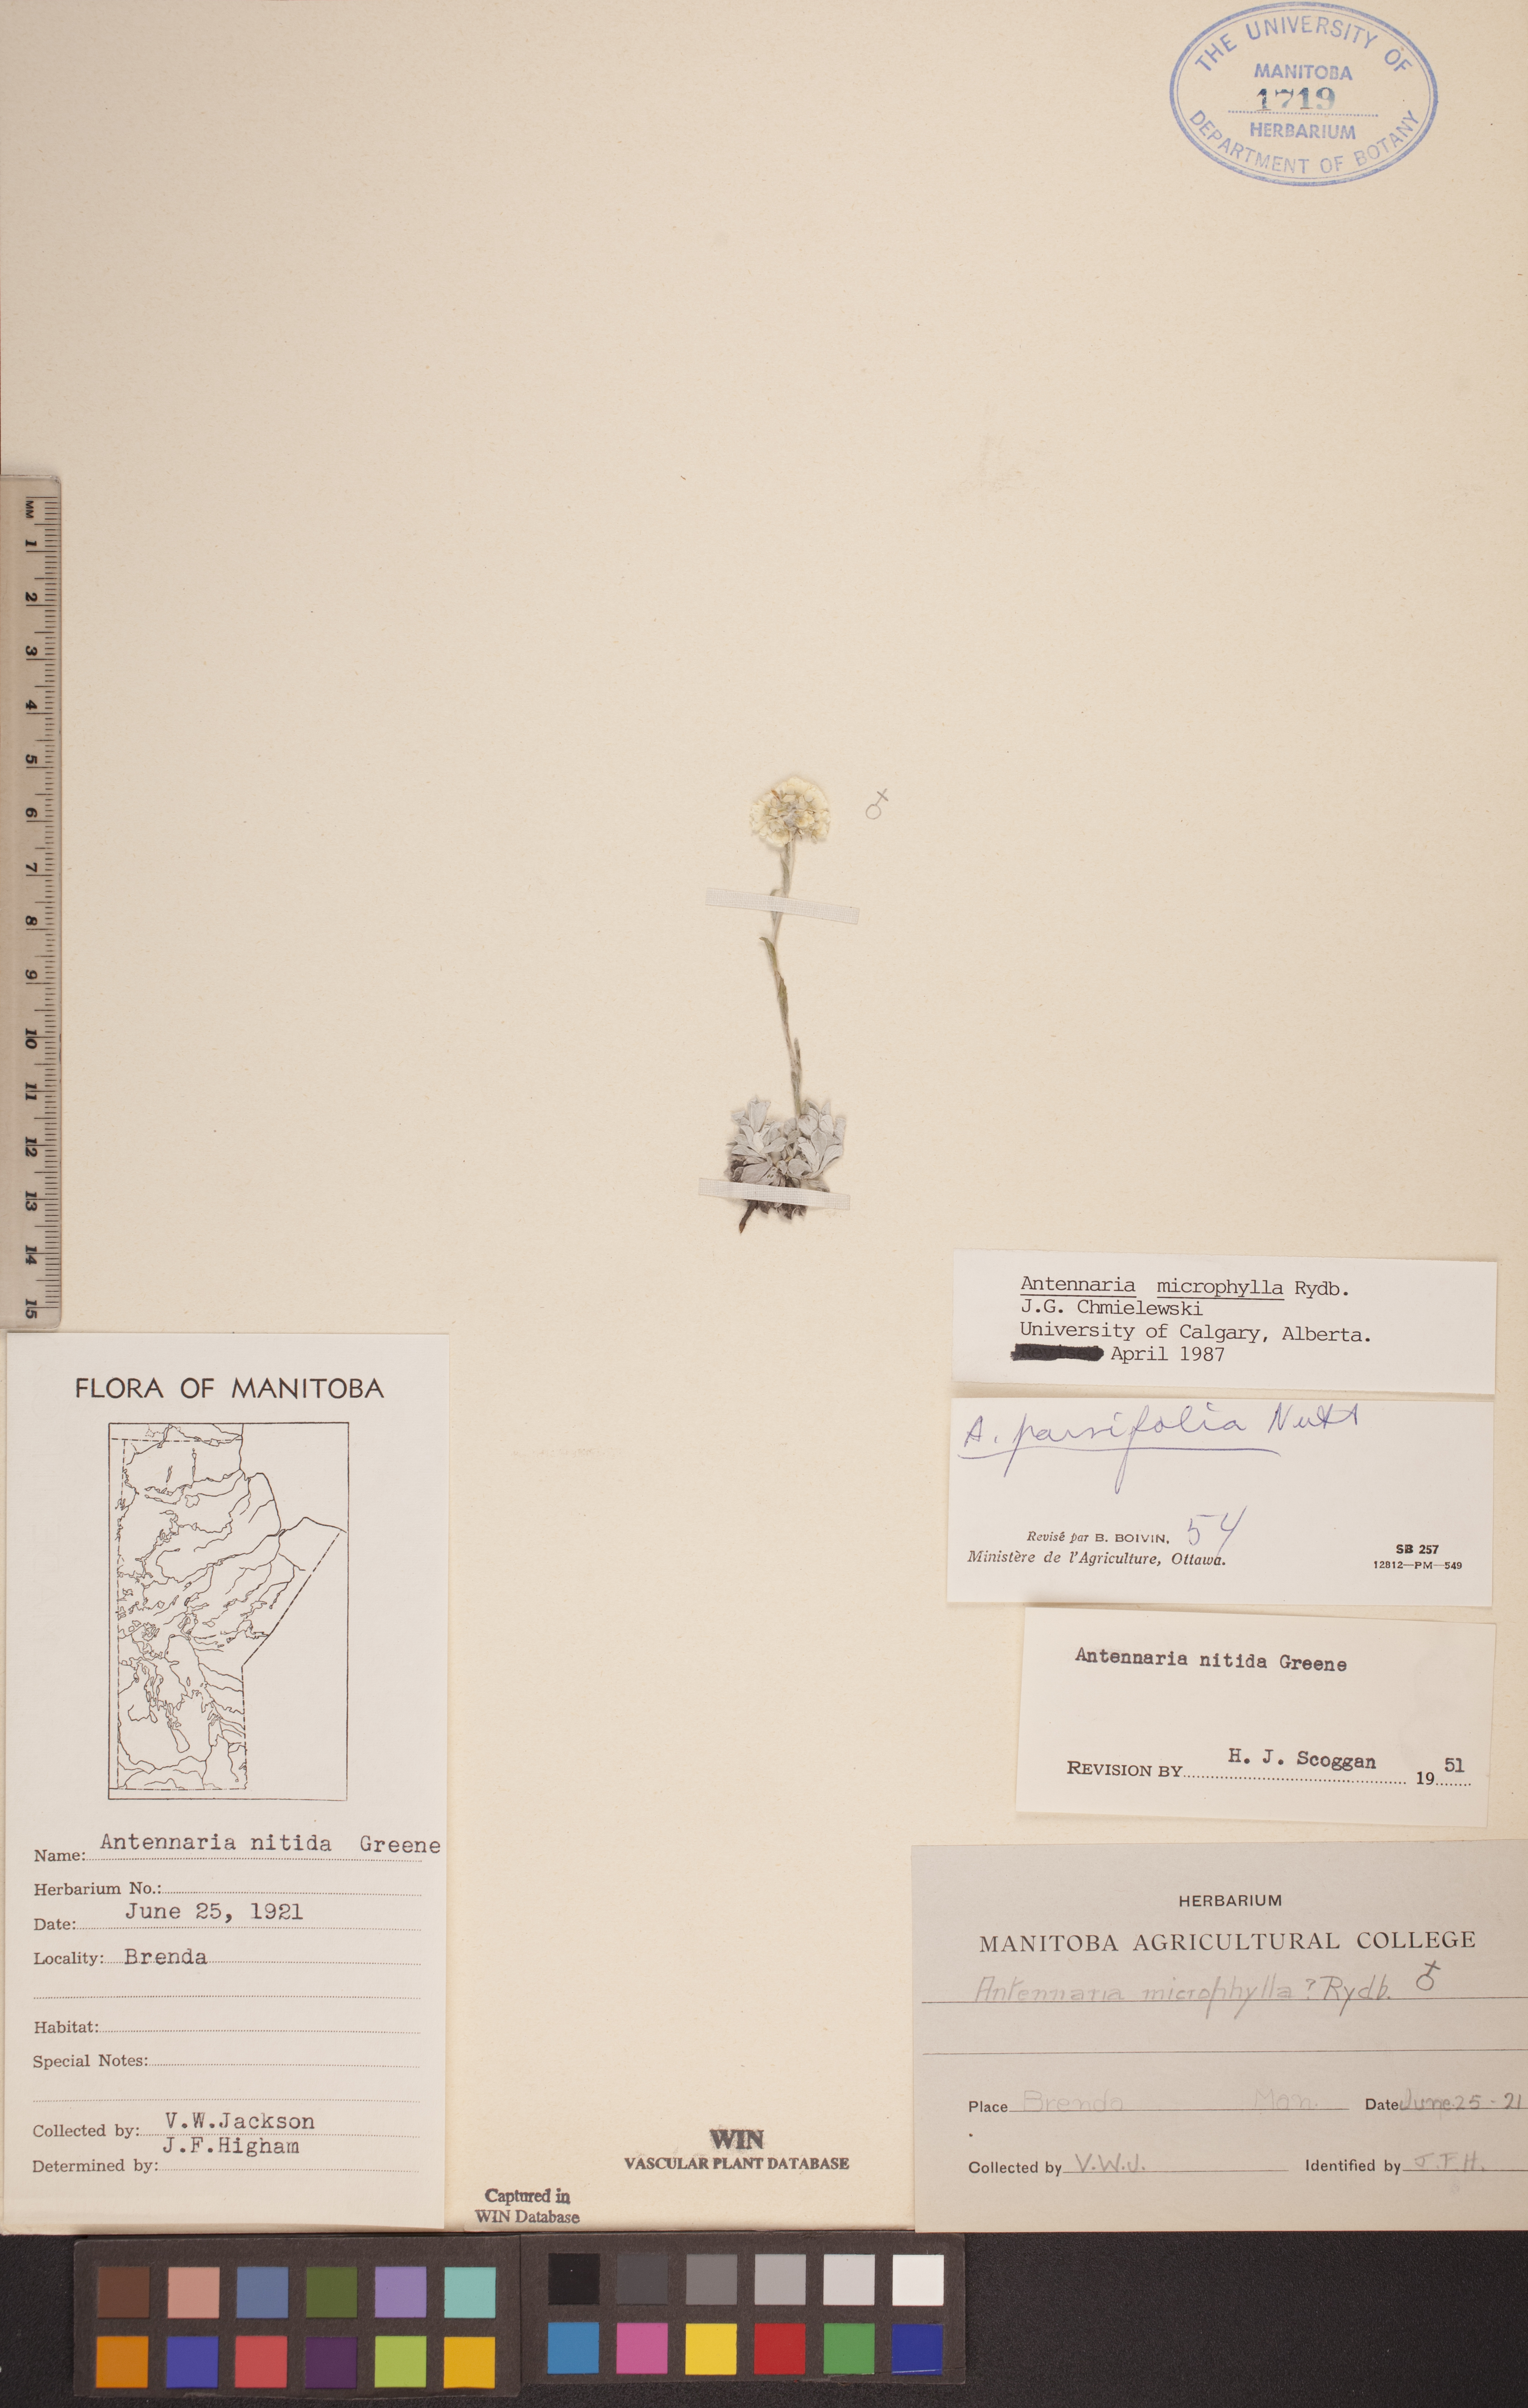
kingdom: Plantae
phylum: Tracheophyta
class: Magnoliopsida
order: Asterales
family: Asteraceae
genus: Antennaria
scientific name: Antennaria microphylla
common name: Littleleaf pussytoes
